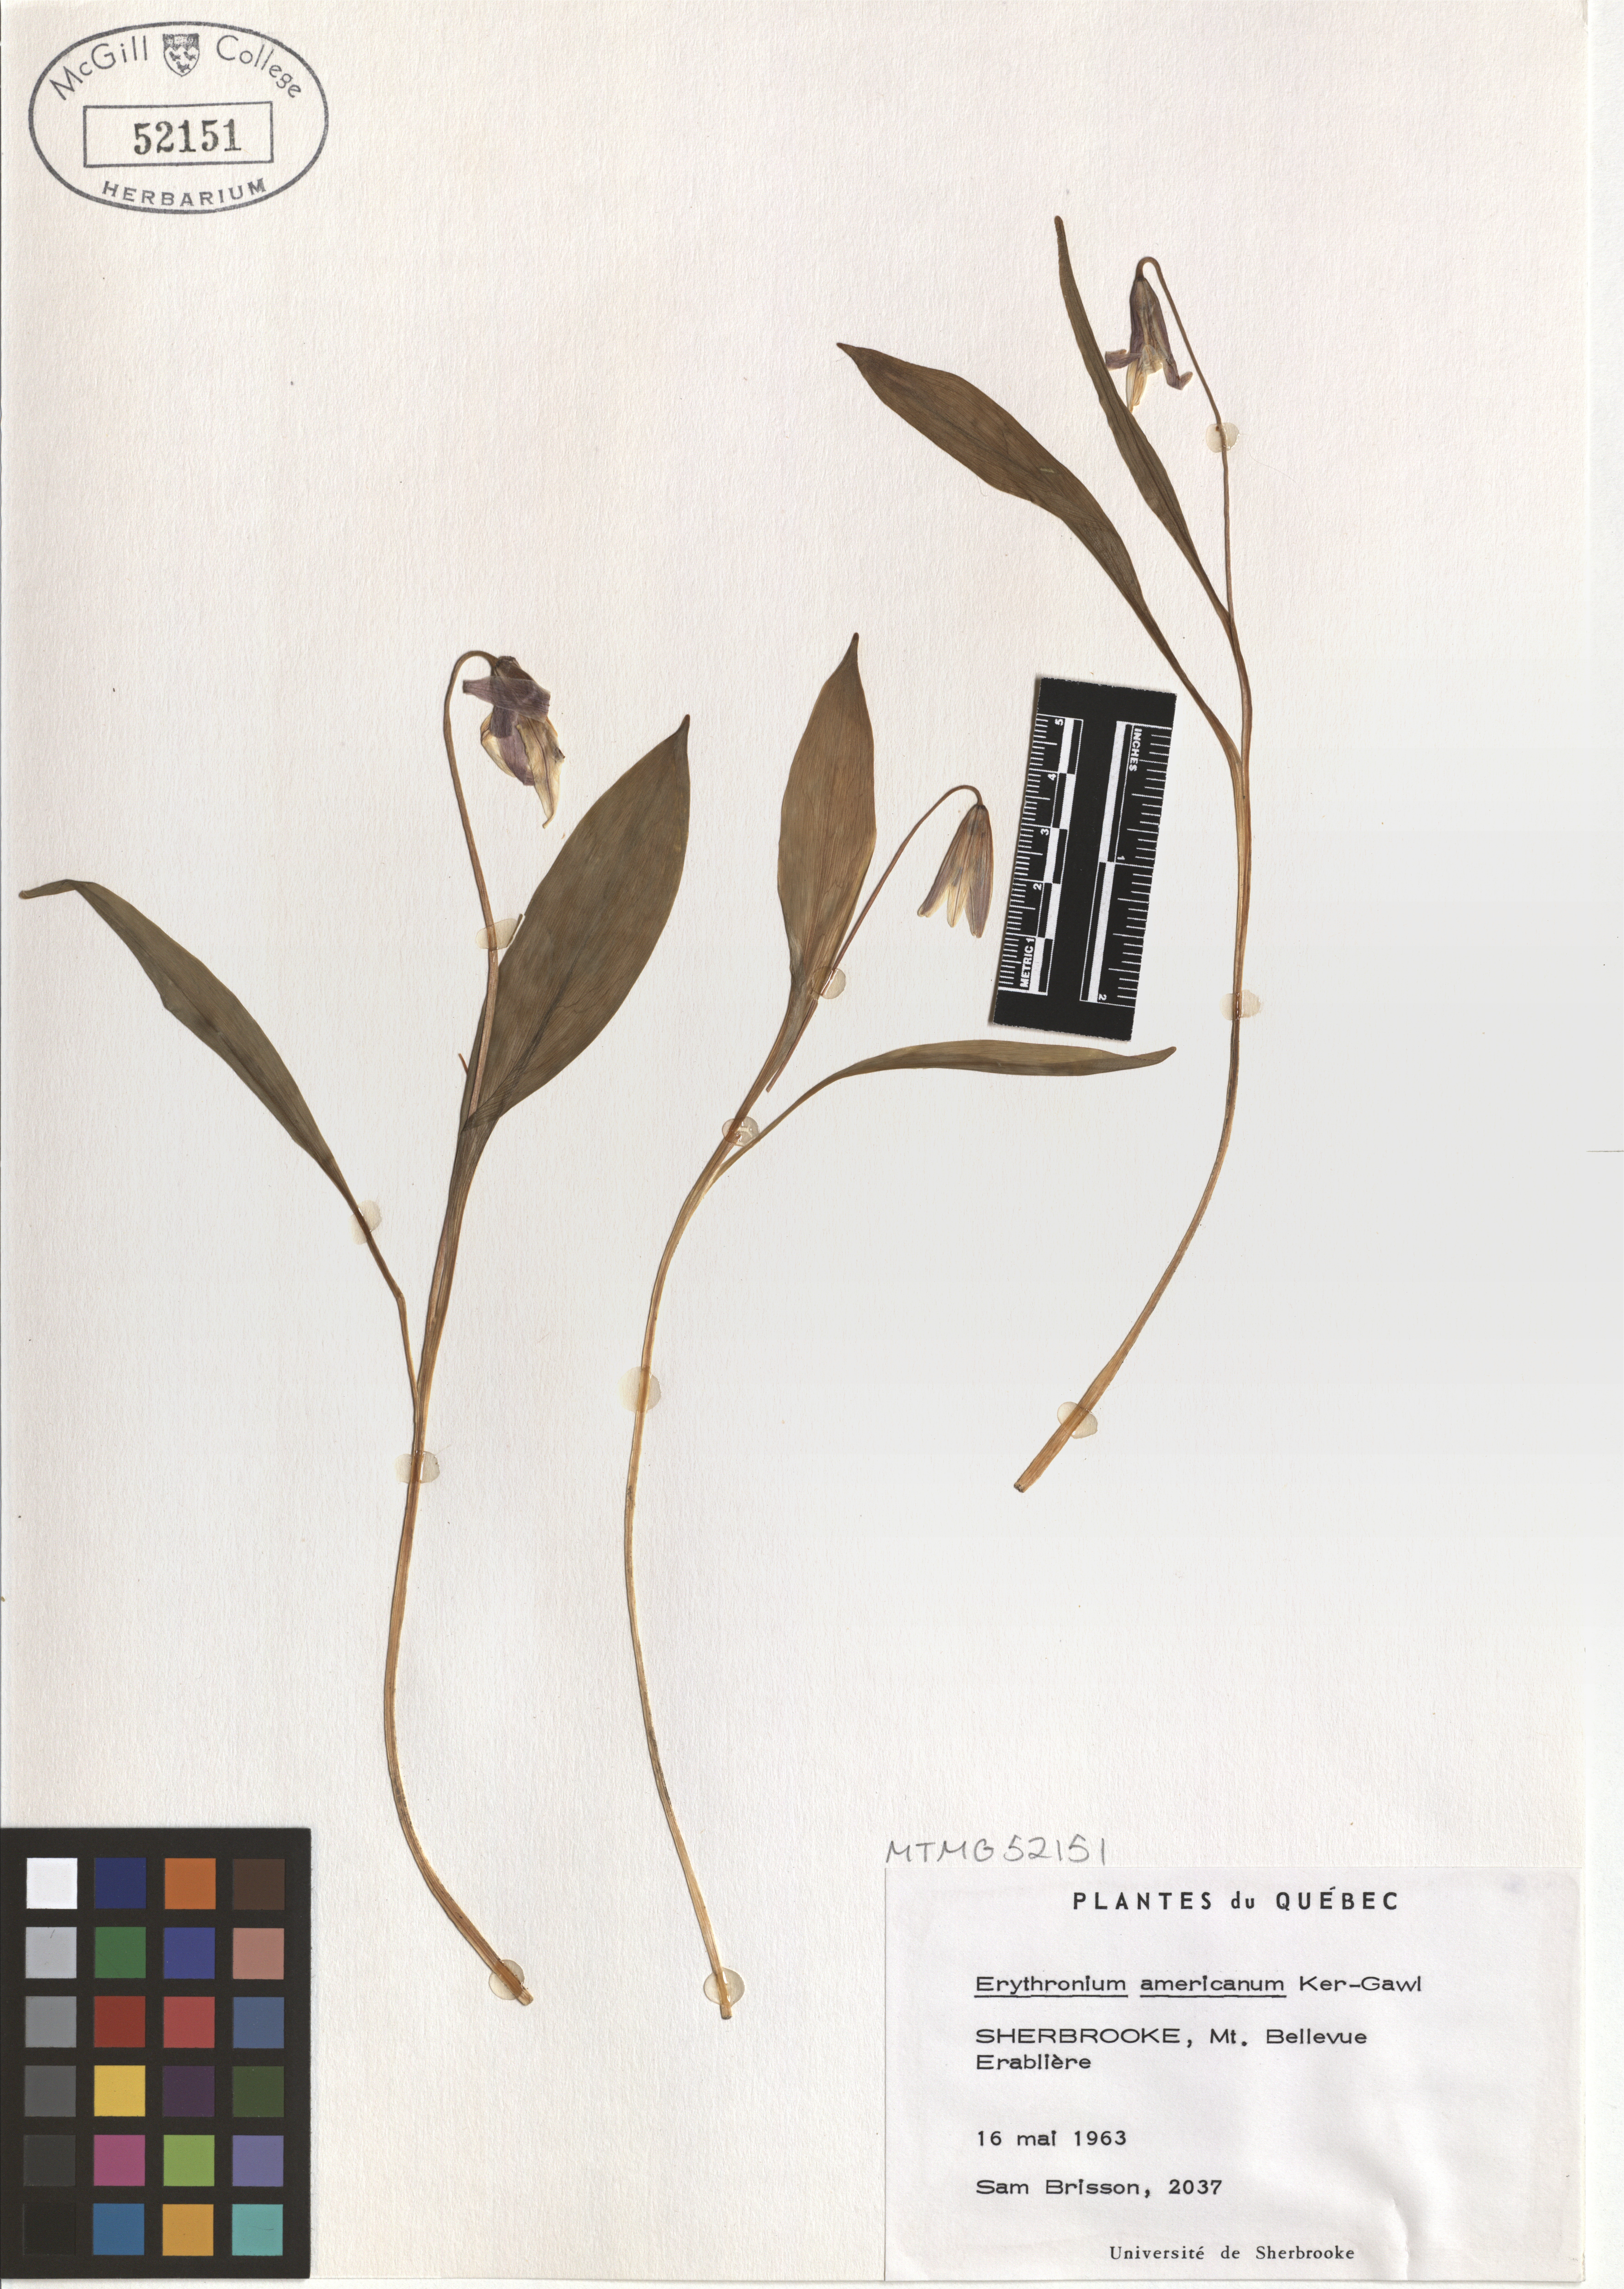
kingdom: Plantae
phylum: Tracheophyta
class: Liliopsida
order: Liliales
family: Liliaceae
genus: Erythronium
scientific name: Erythronium americanum
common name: Yellow adder's-tongue
